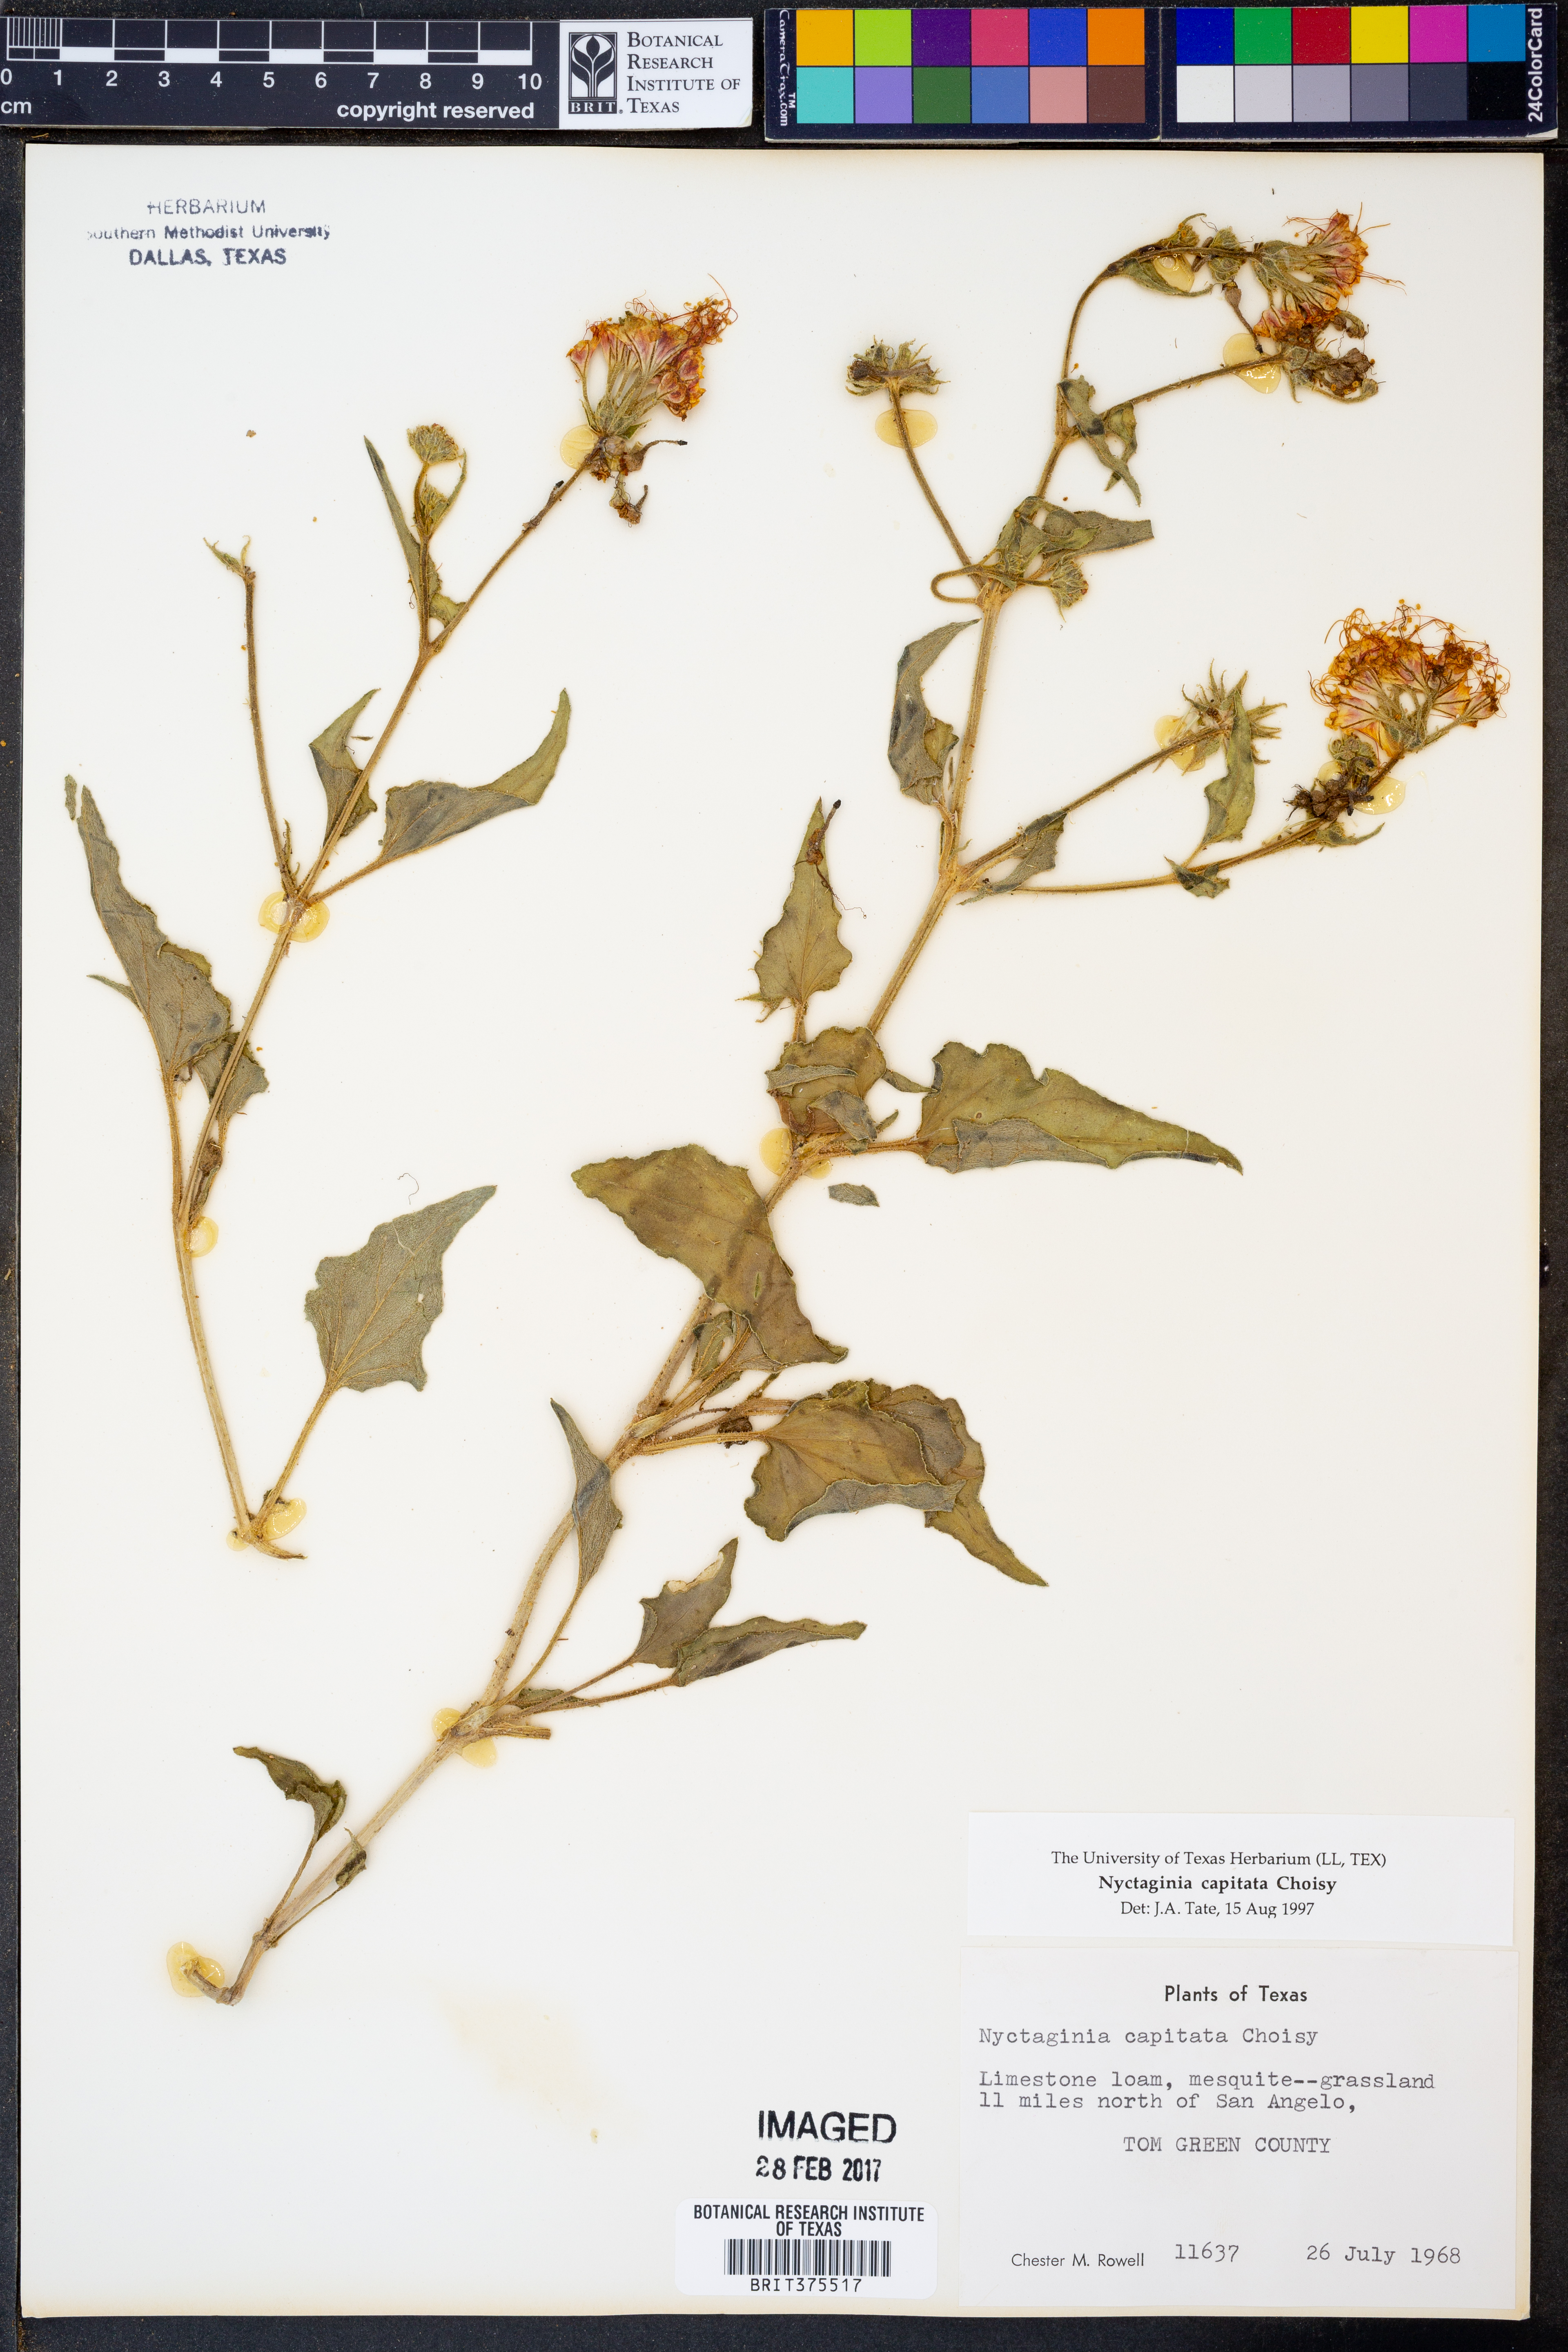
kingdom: Plantae
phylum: Tracheophyta
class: Magnoliopsida
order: Caryophyllales
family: Nyctaginaceae
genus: Nyctaginia
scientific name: Nyctaginia capitata
